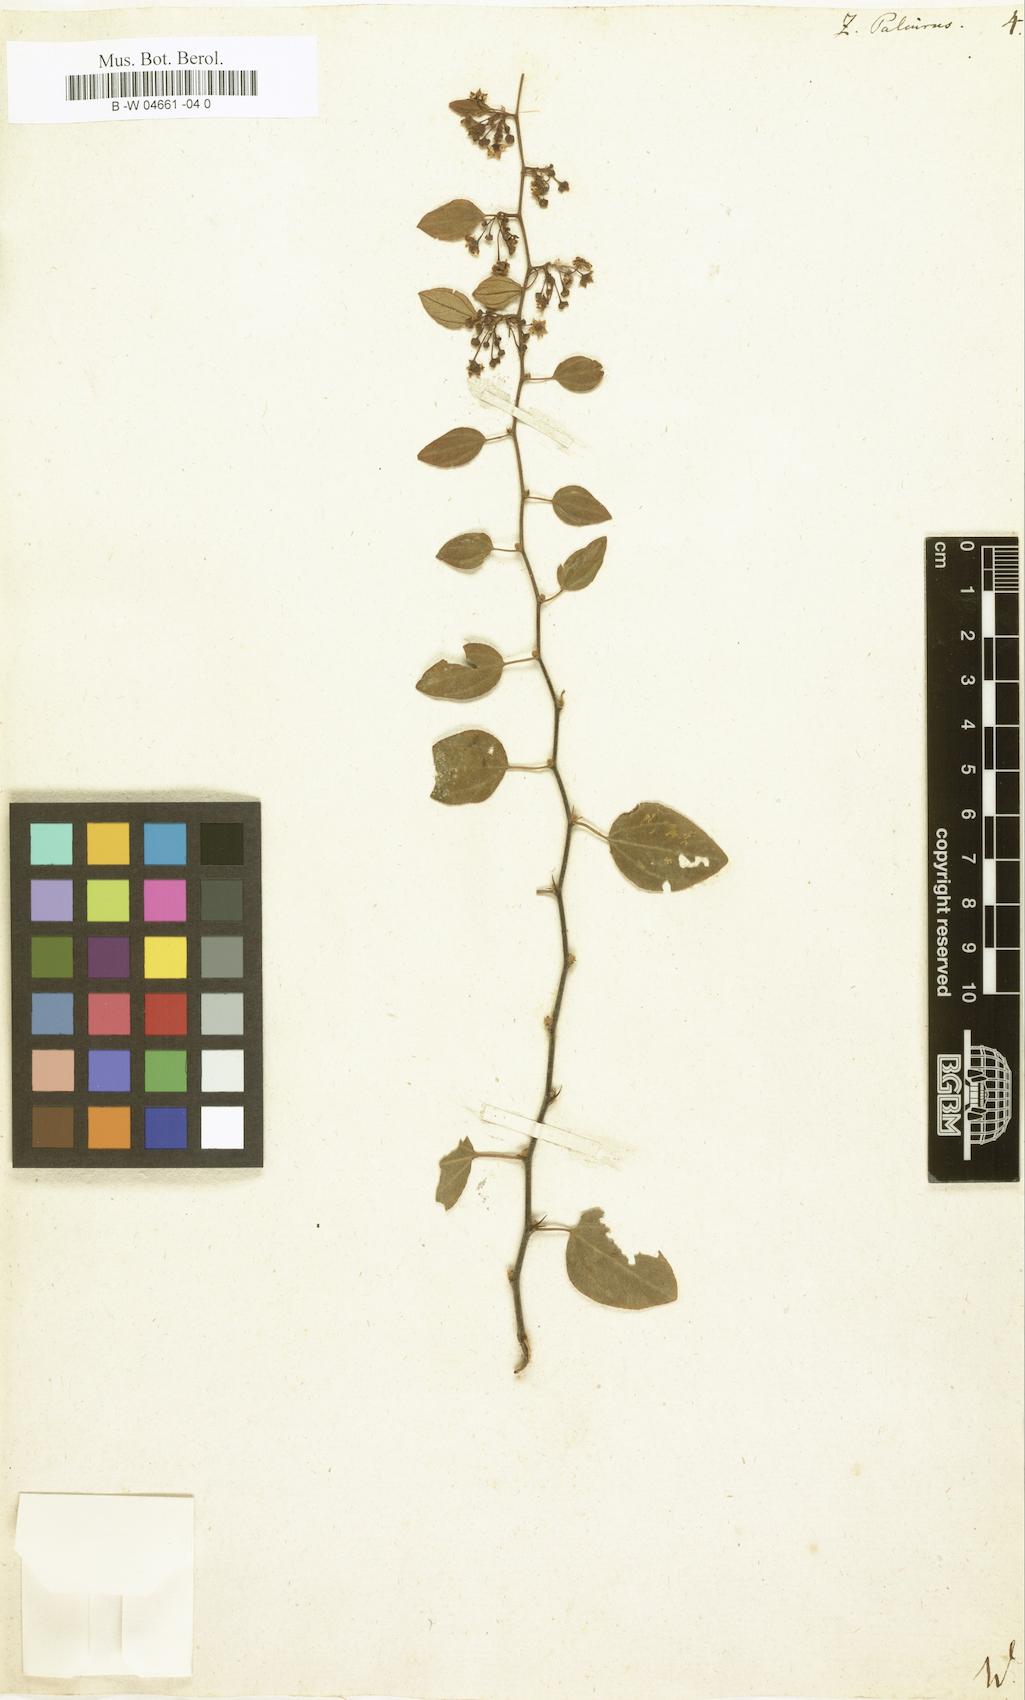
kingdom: Plantae
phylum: Tracheophyta
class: Magnoliopsida
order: Rosales
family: Rhamnaceae
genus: Paliurus
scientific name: Paliurus spina-christi
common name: Jeruselem thorn
